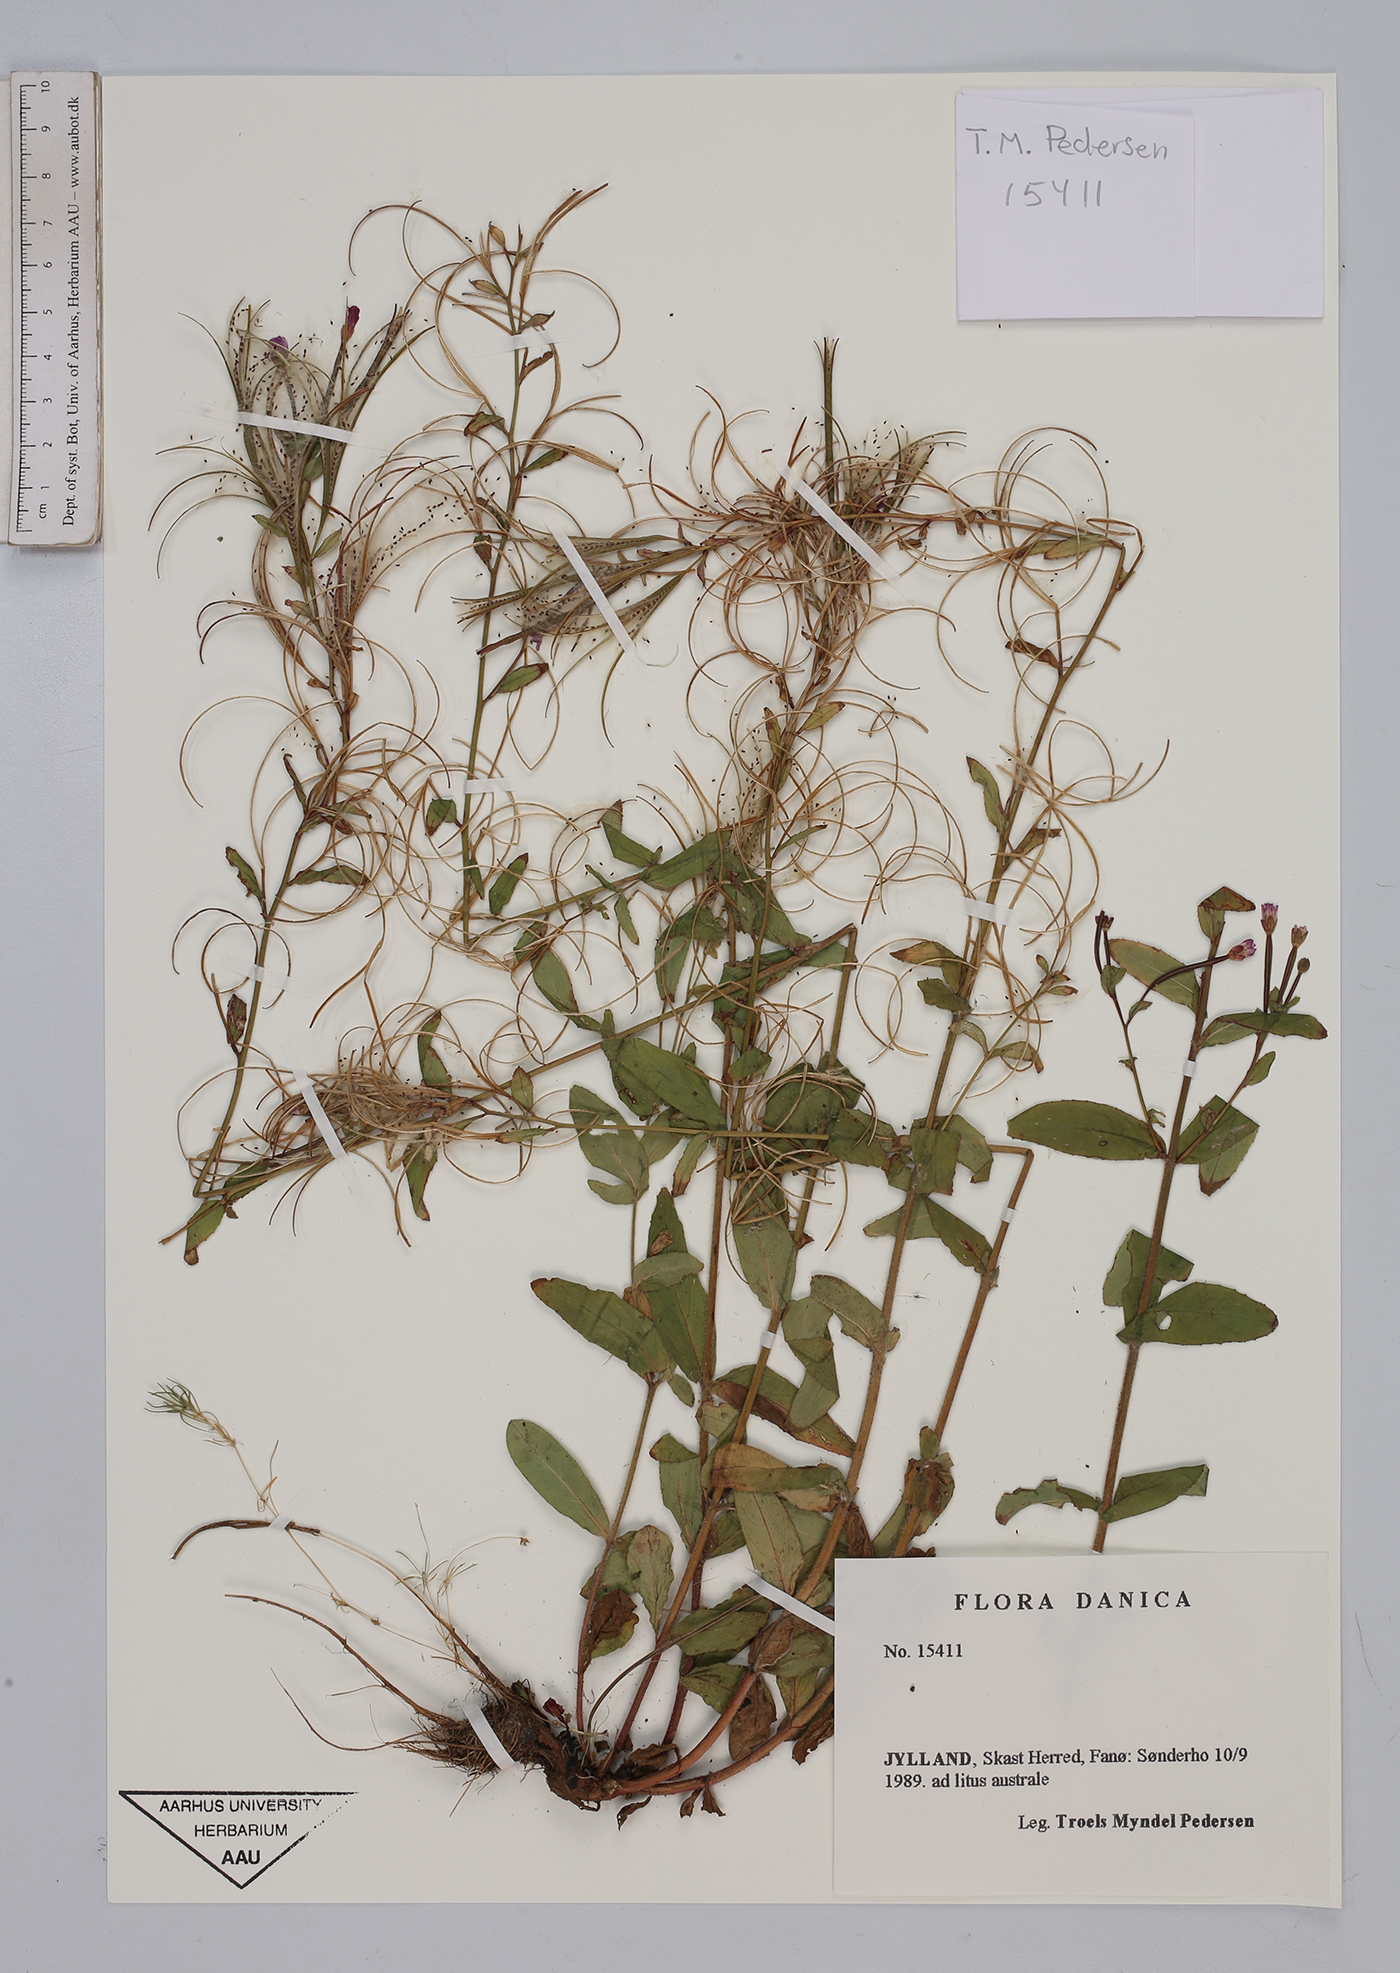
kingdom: Plantae
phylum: Tracheophyta
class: Magnoliopsida
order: Myrtales
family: Onagraceae
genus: Epilobium
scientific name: Epilobium
